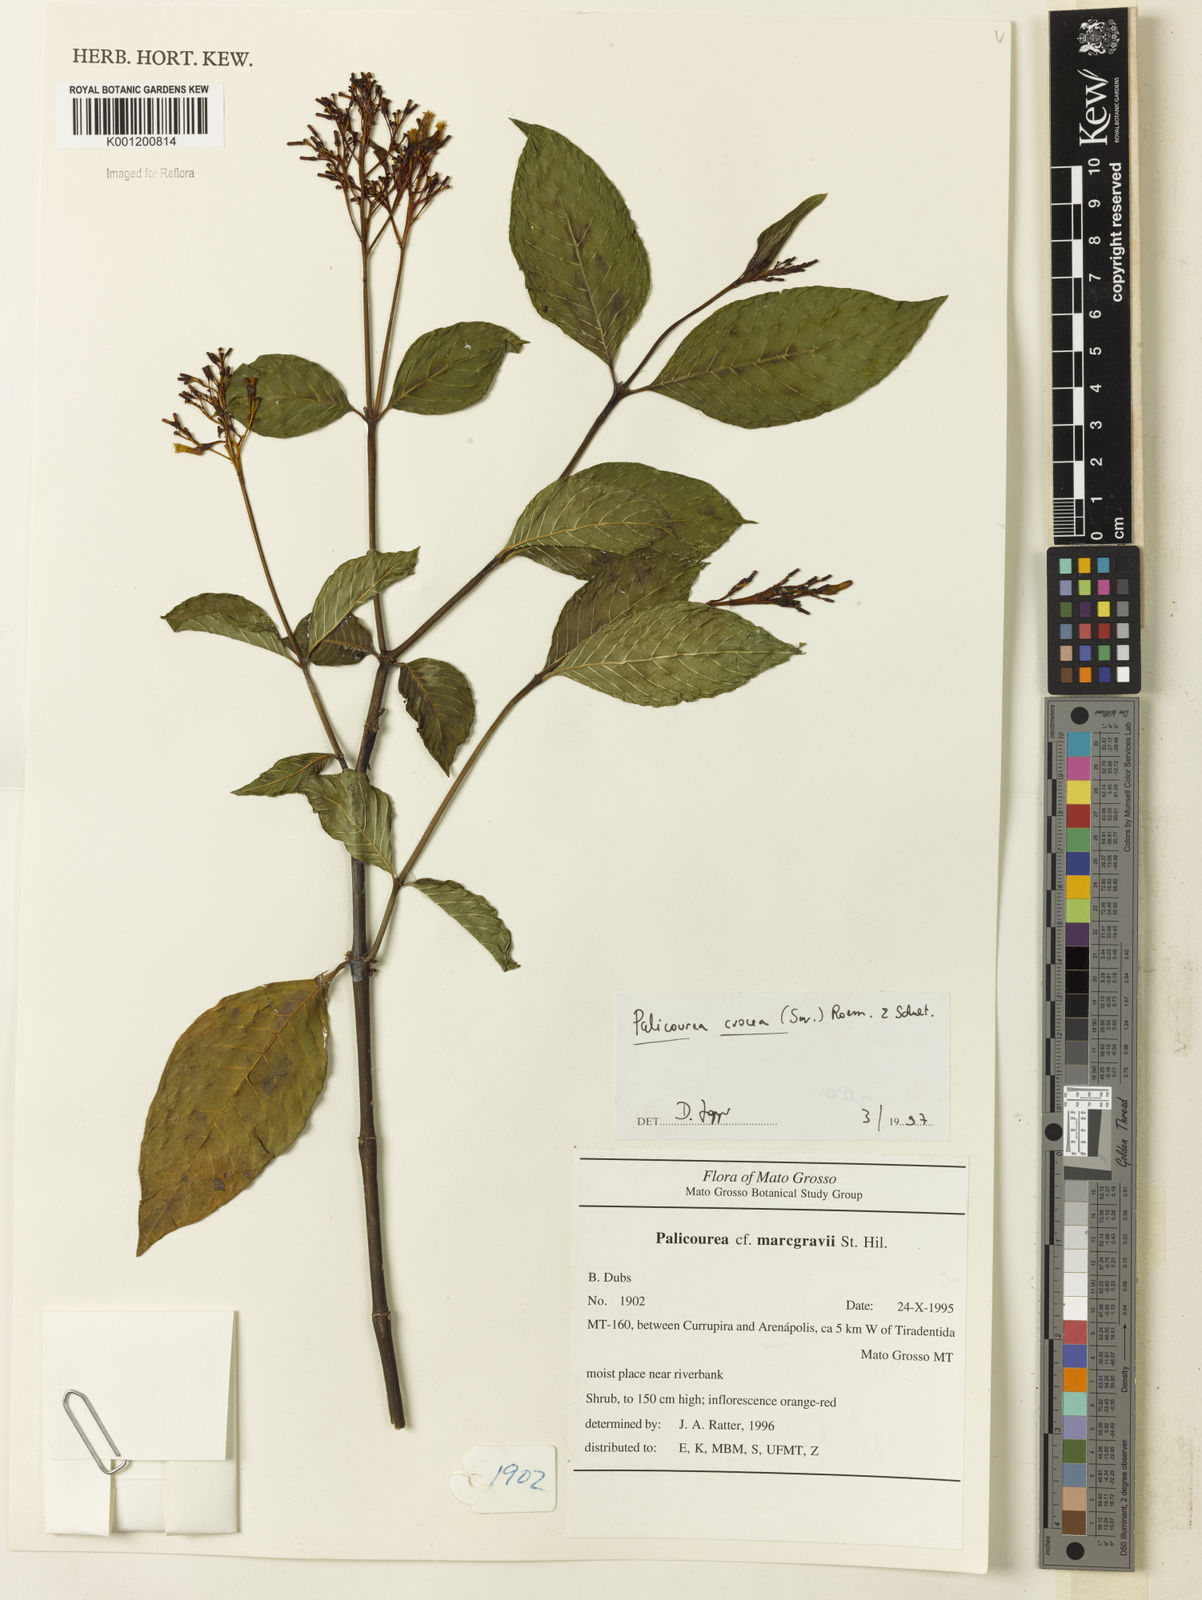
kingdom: Plantae
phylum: Tracheophyta
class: Magnoliopsida
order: Gentianales
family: Rubiaceae
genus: Palicourea
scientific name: Palicourea crocea
